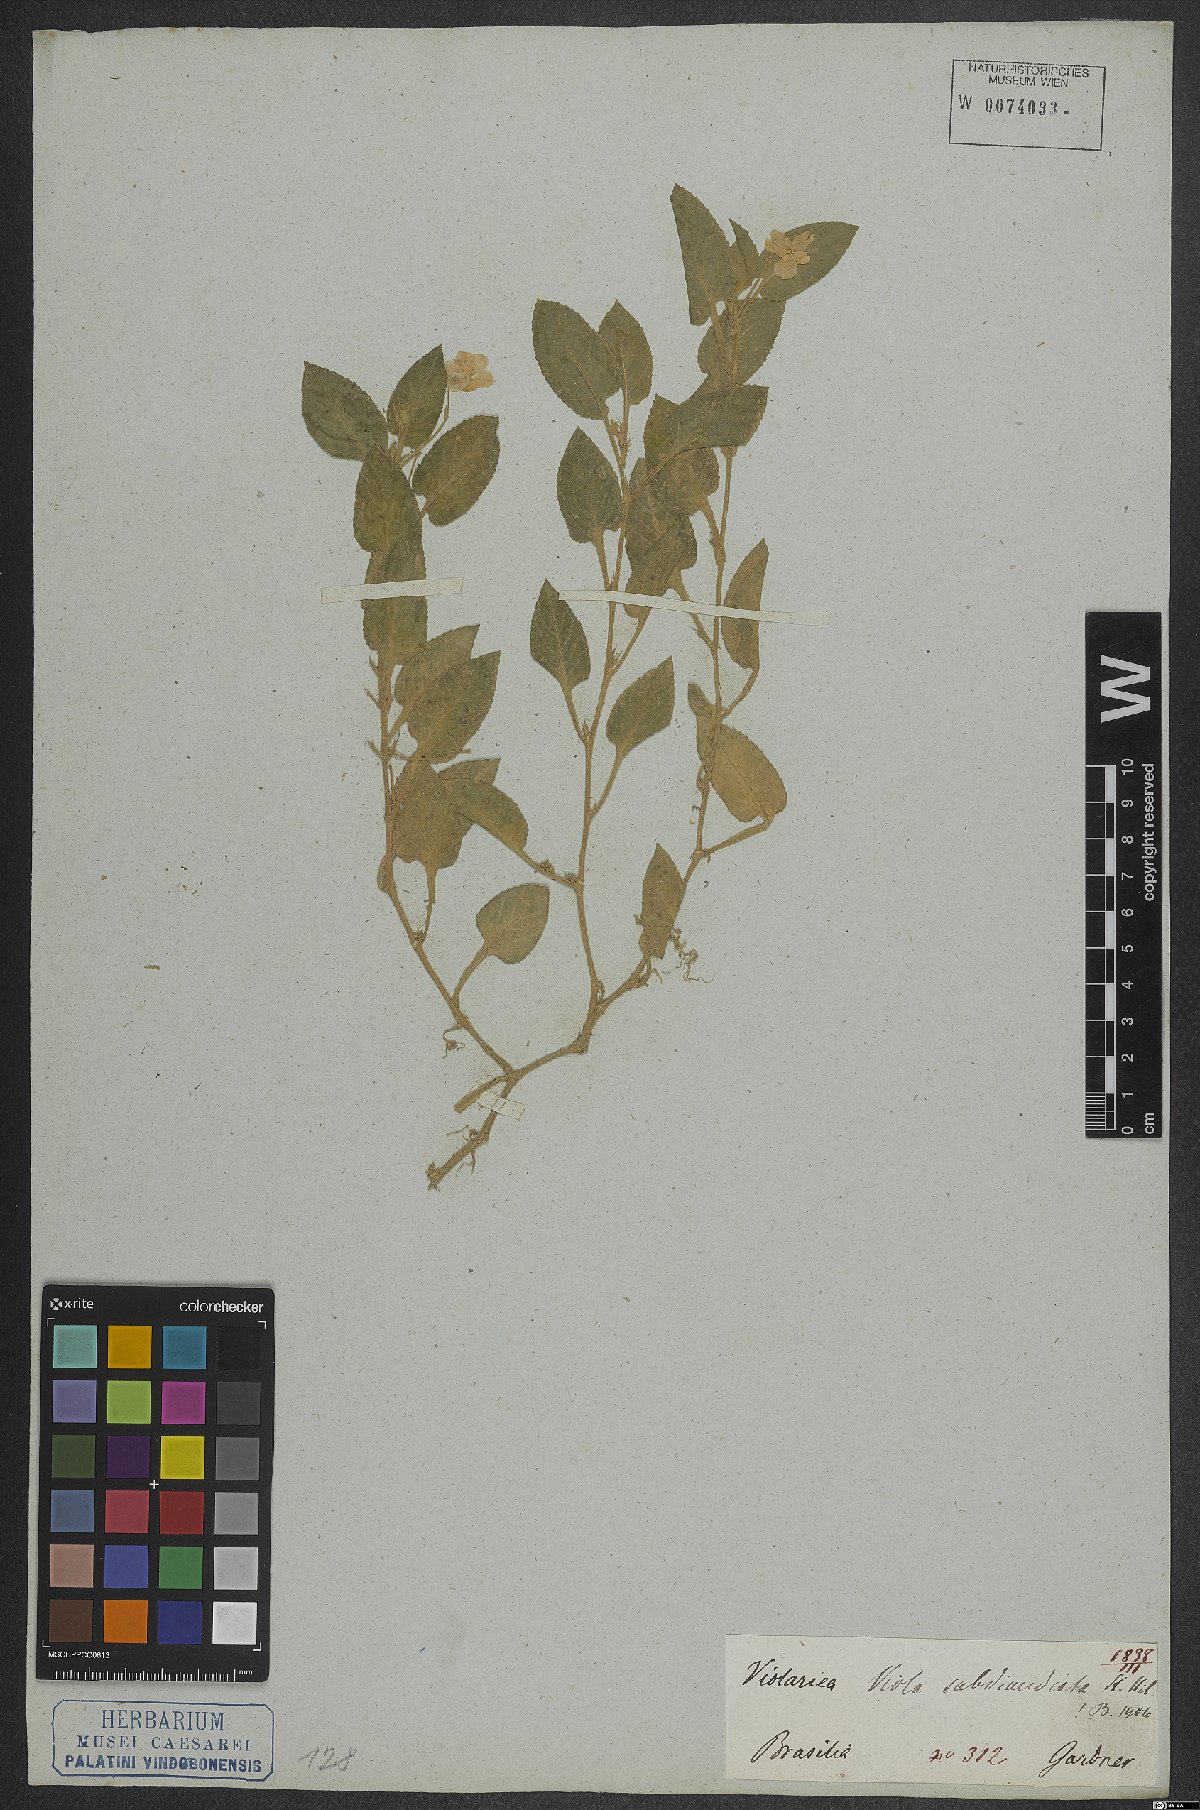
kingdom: Plantae
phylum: Tracheophyta
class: Magnoliopsida
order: Malpighiales
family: Violaceae
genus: Viola
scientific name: Viola subdimidiata
